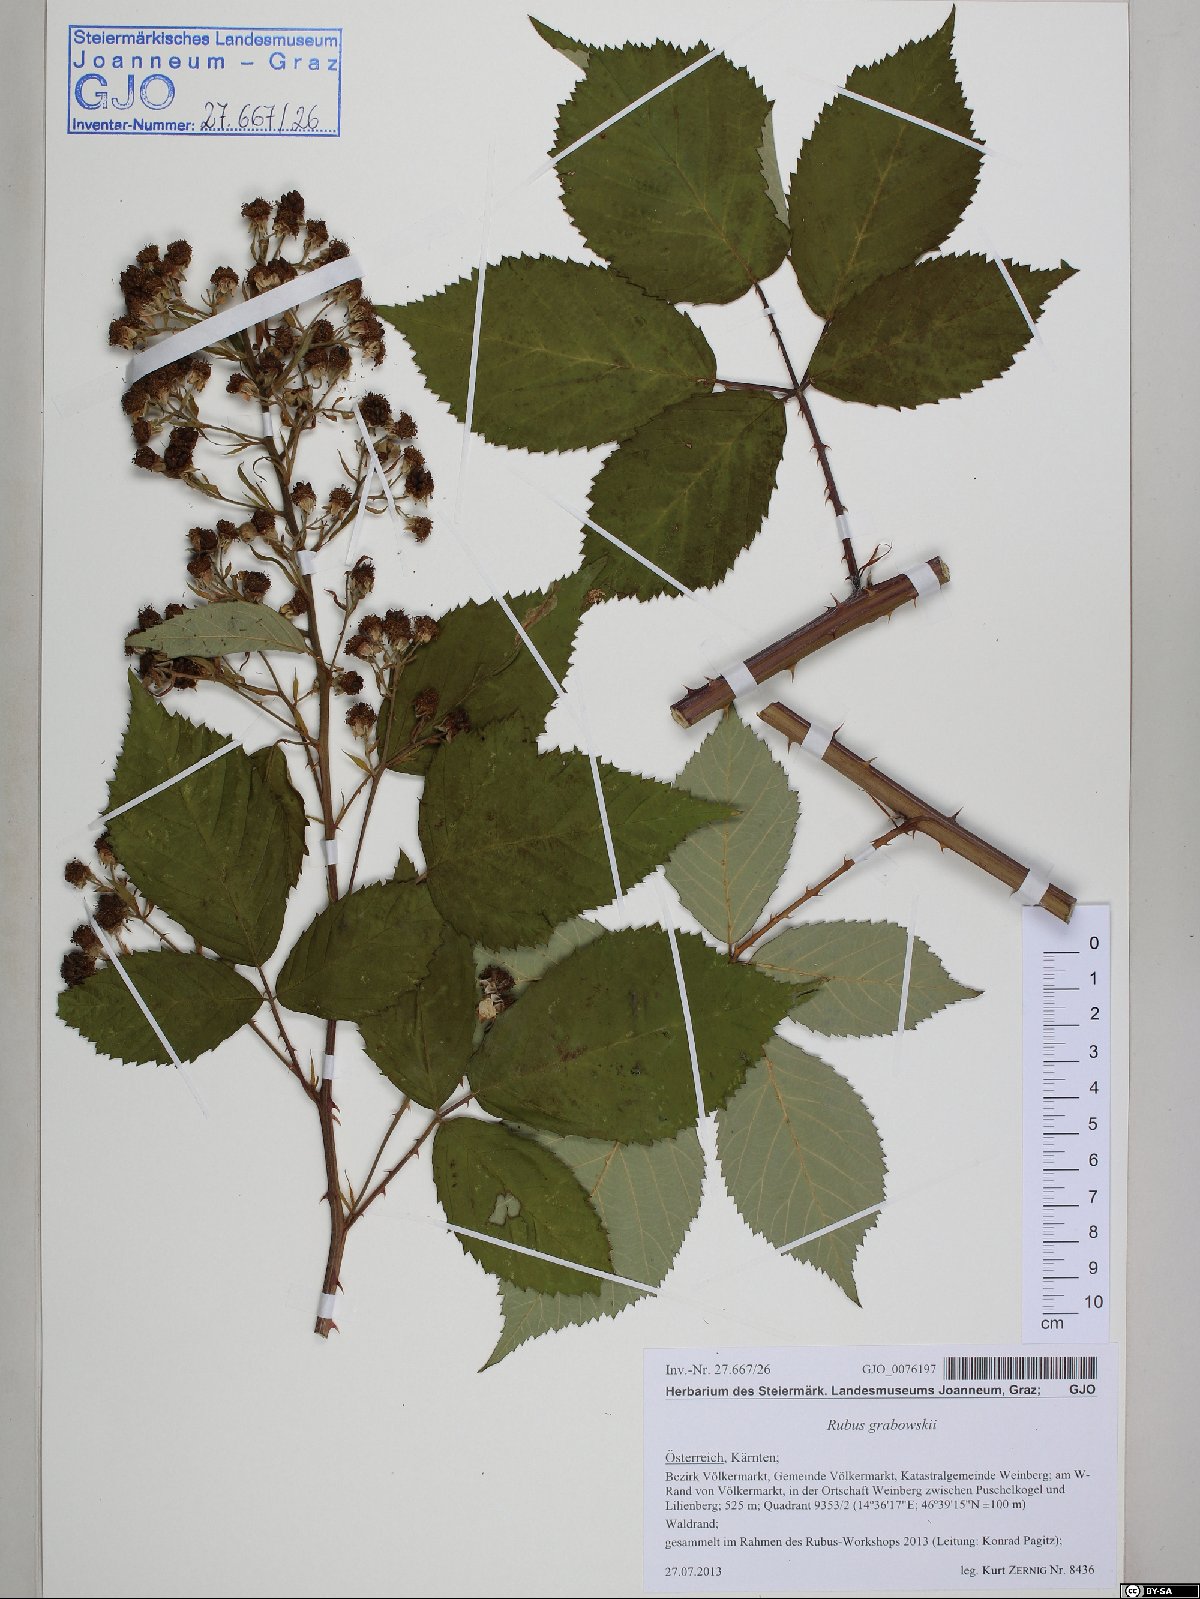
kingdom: Plantae
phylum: Tracheophyta
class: Magnoliopsida
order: Rosales
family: Rosaceae
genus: Rubus
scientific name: Rubus grabowskii
